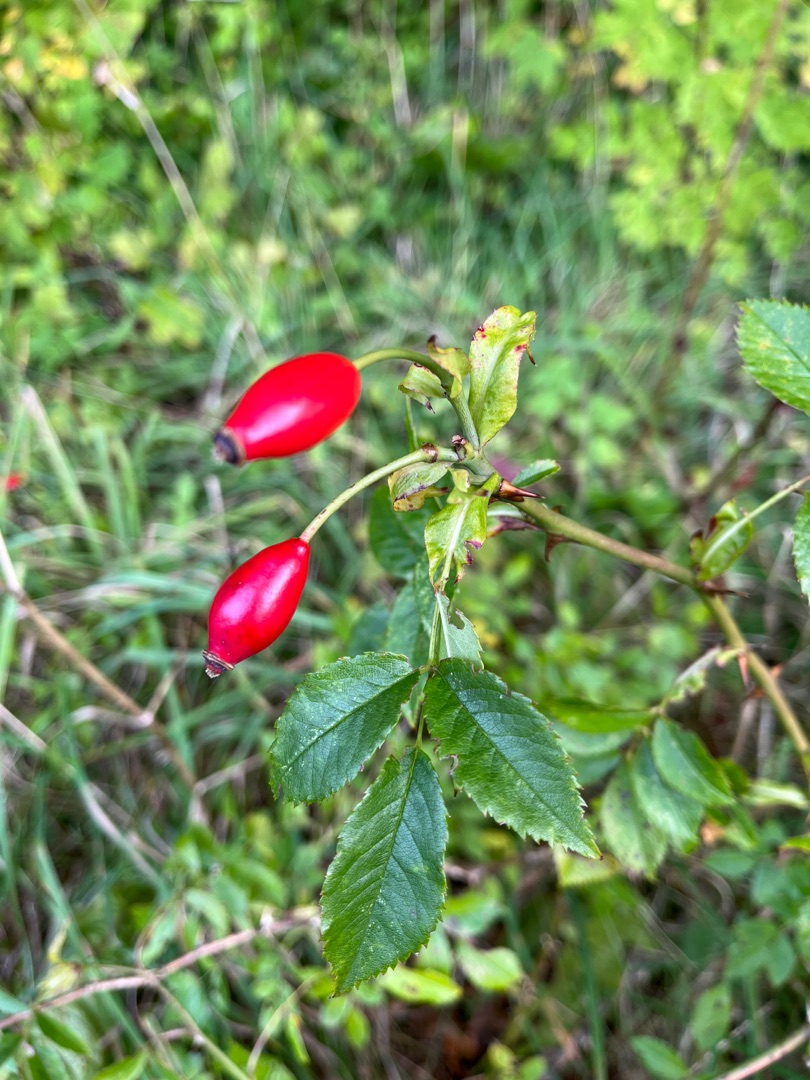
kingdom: Plantae
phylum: Tracheophyta
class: Magnoliopsida
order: Rosales
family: Rosaceae
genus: Rosa
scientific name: Rosa canina
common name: Hunde-rose
